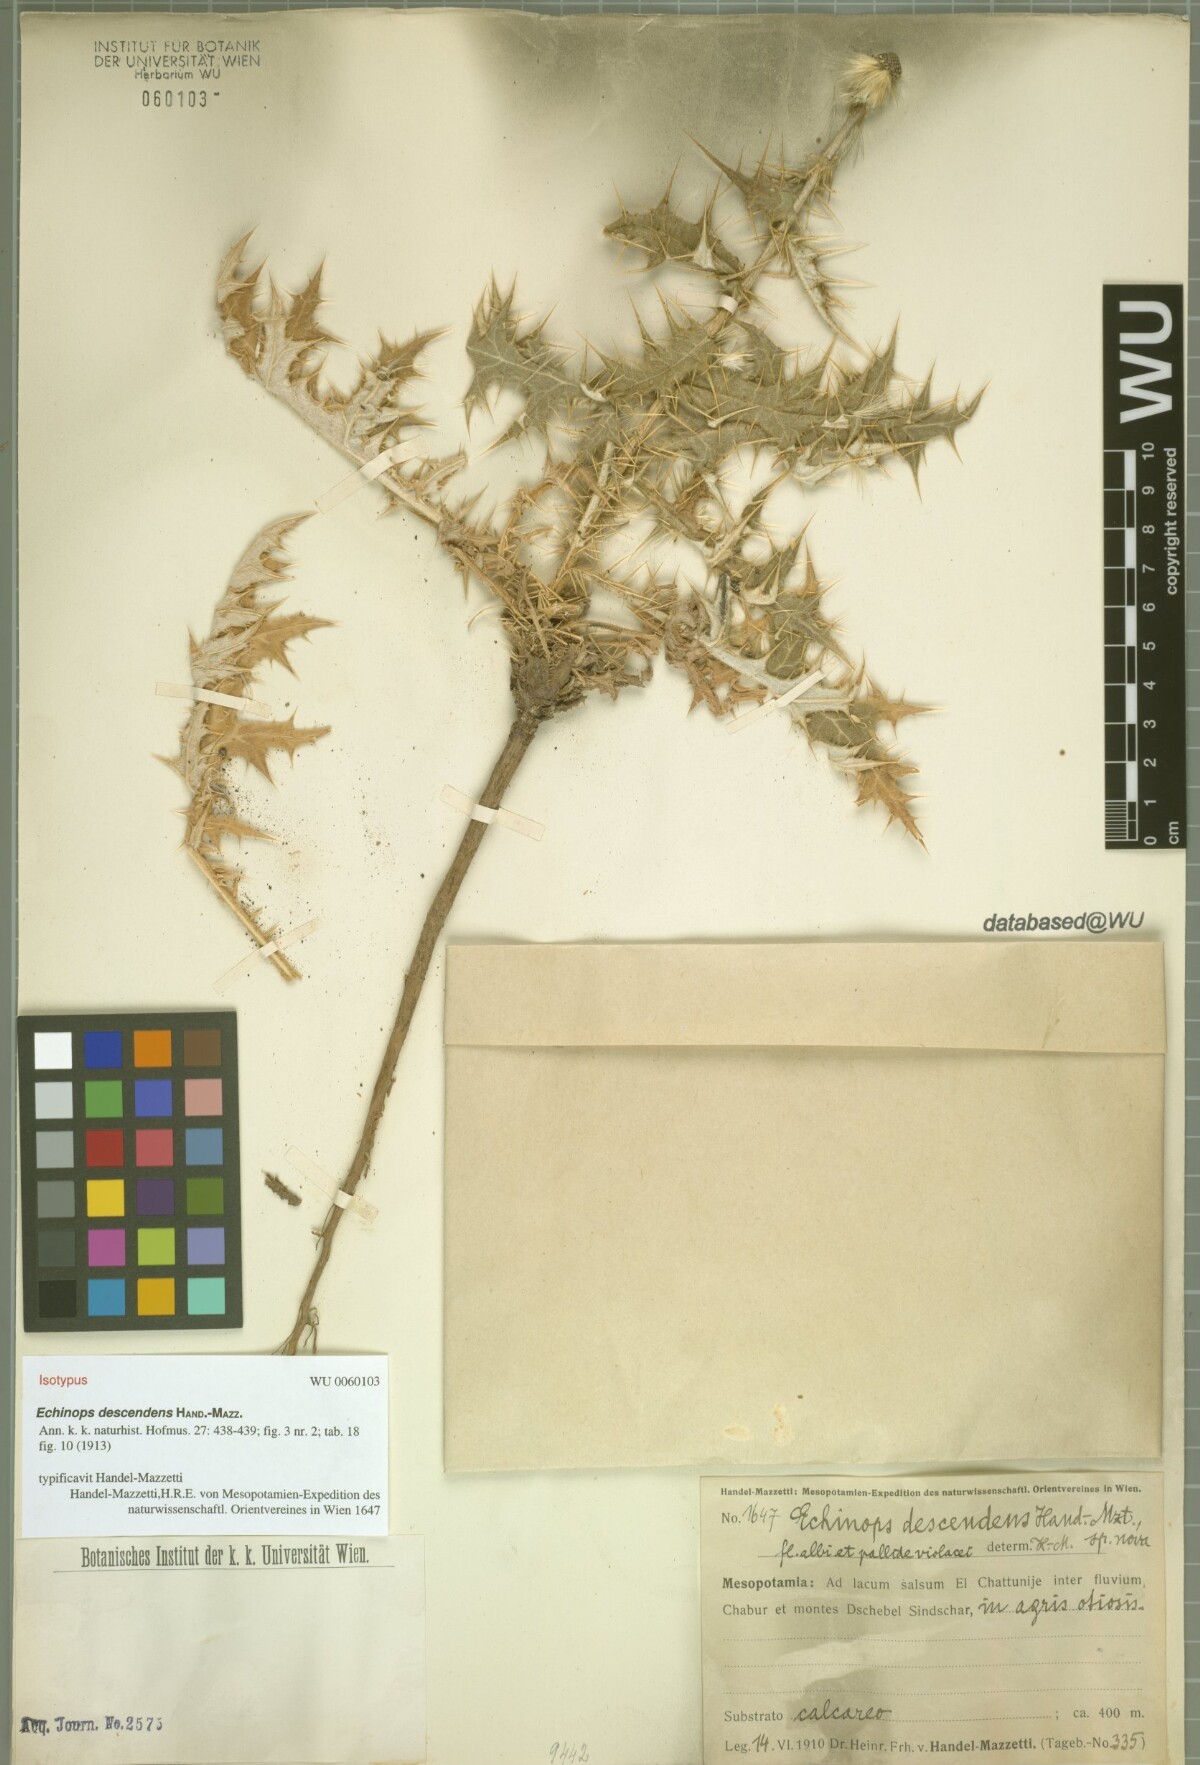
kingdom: Plantae
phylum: Tracheophyta
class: Magnoliopsida
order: Asterales
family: Asteraceae
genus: Echinops
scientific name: Echinops descendens
